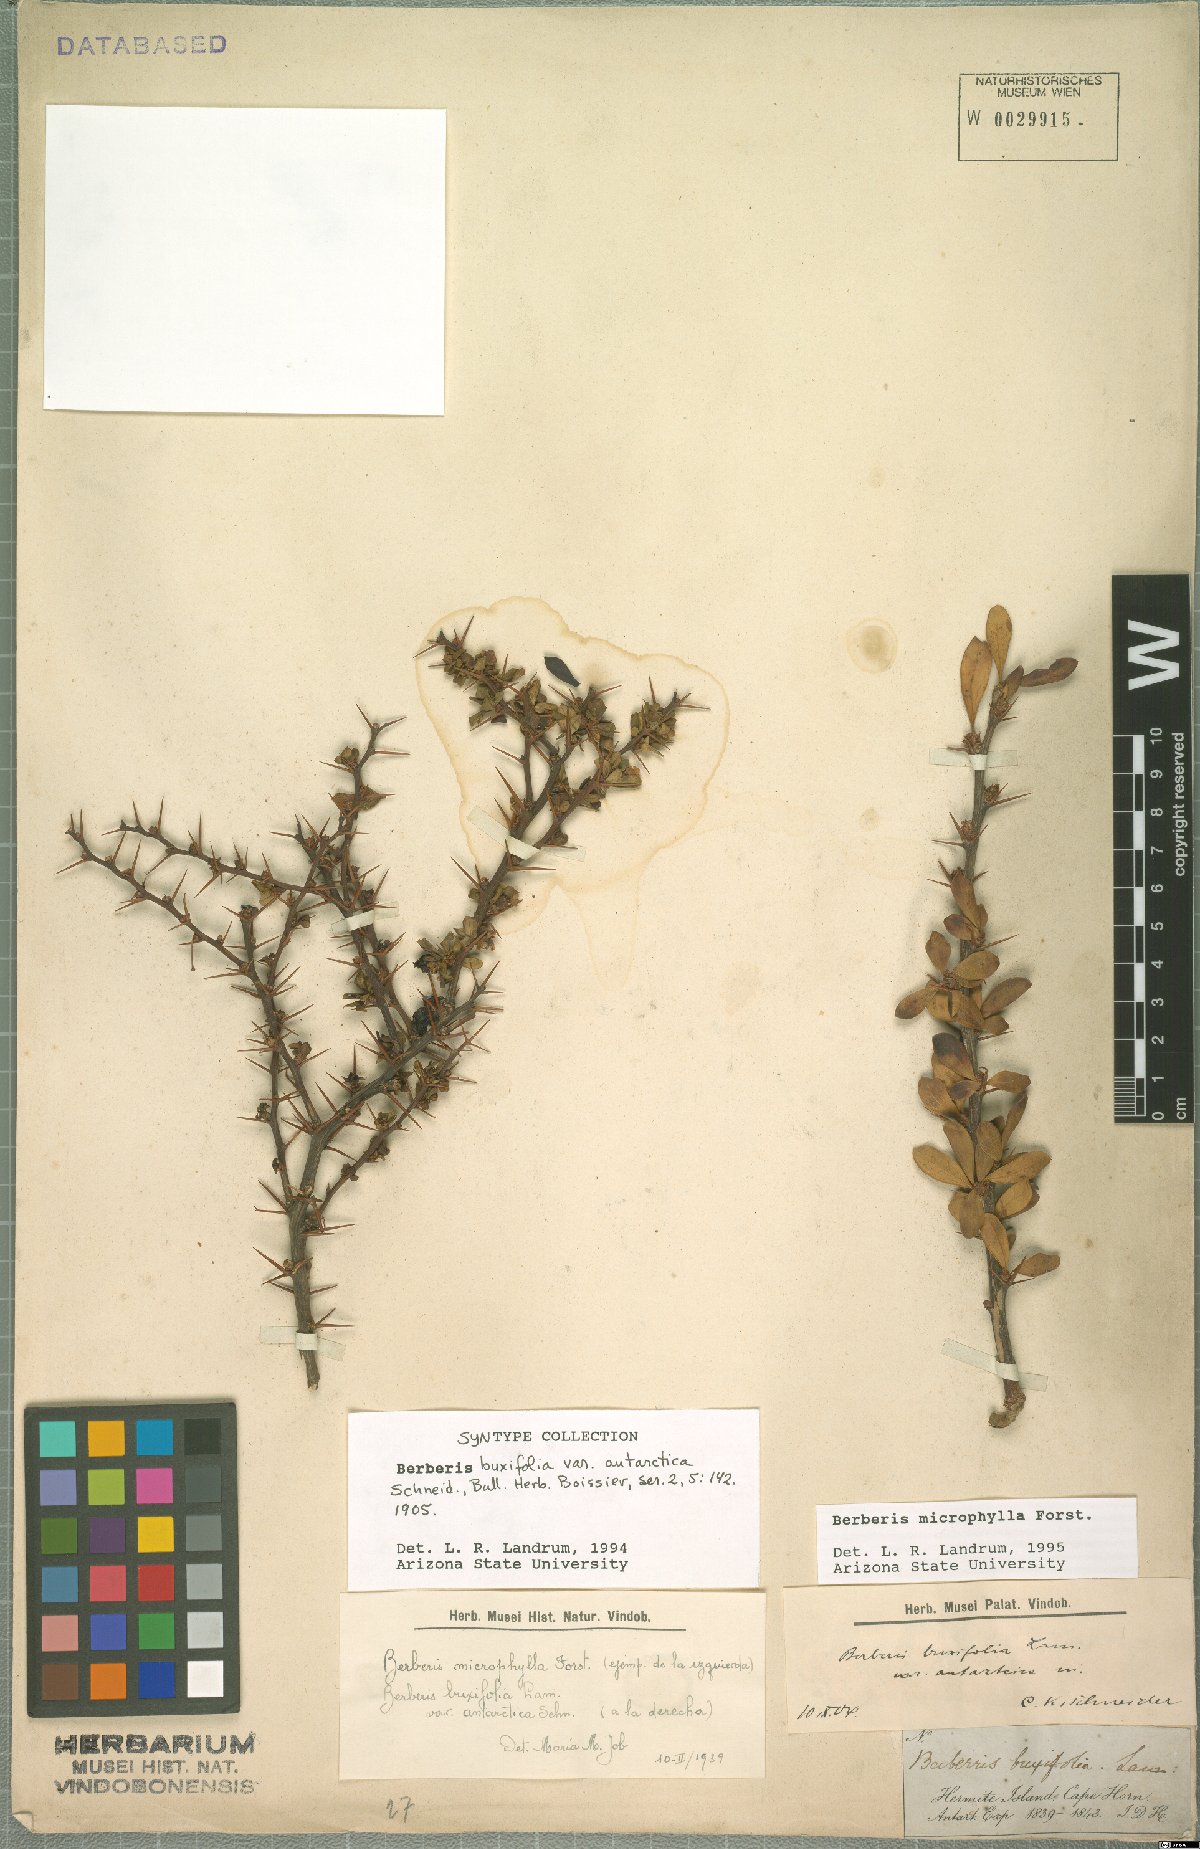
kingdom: Plantae
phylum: Tracheophyta
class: Magnoliopsida
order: Ranunculales
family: Berberidaceae
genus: Berberis
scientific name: Berberis microphylla
